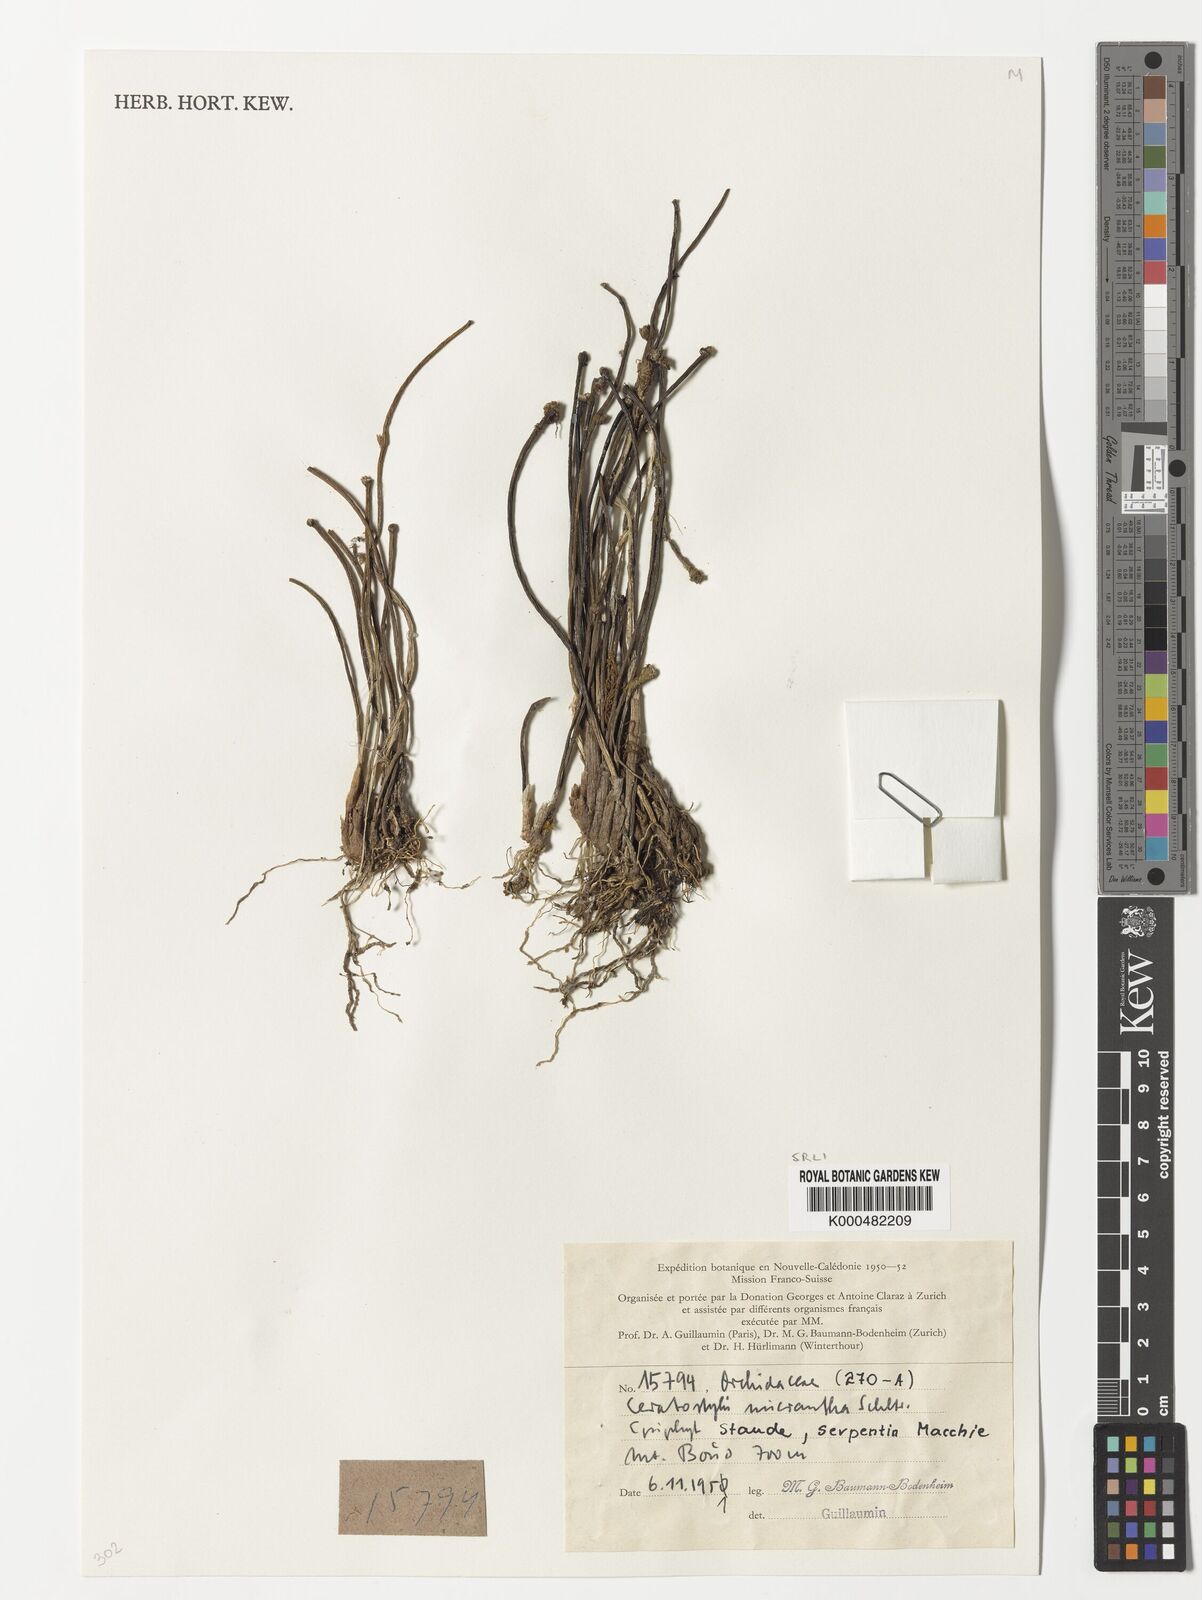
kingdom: Plantae
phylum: Tracheophyta
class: Liliopsida
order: Asparagales
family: Orchidaceae
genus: Ceratostylis
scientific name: Ceratostylis
